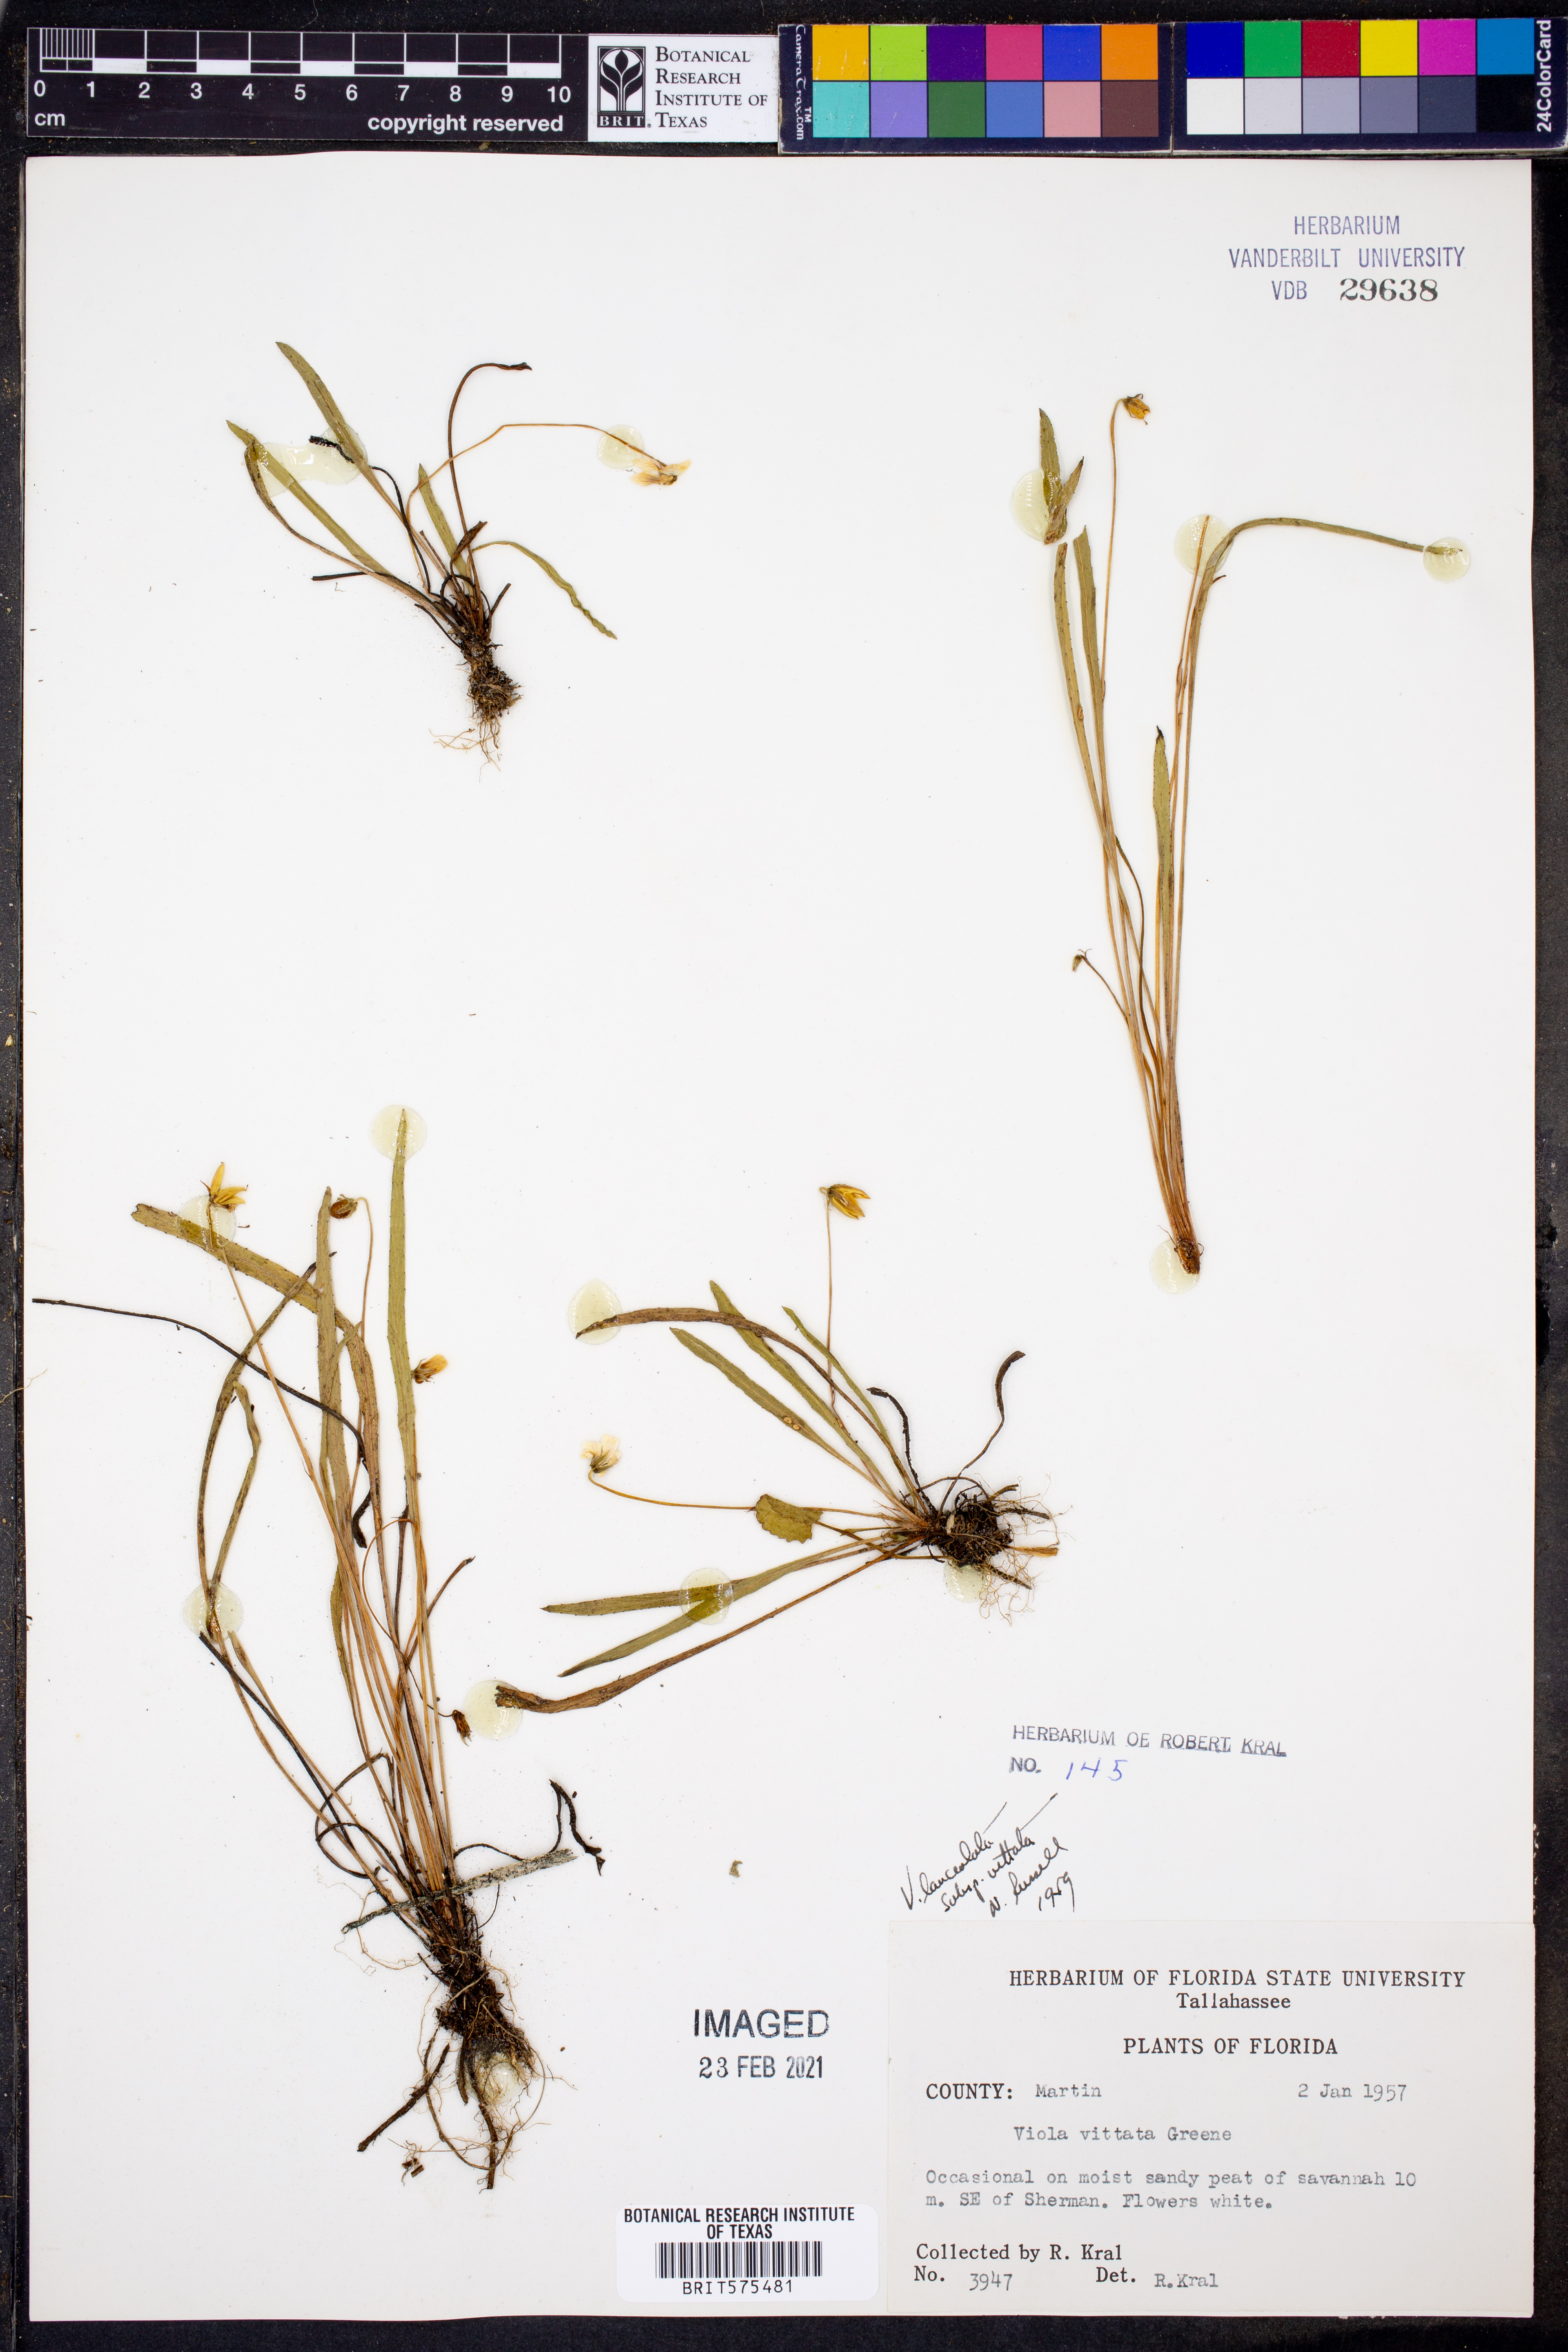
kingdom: Plantae
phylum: Tracheophyta
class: Magnoliopsida
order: Malpighiales
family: Violaceae
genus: Viola
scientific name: Viola vittata
